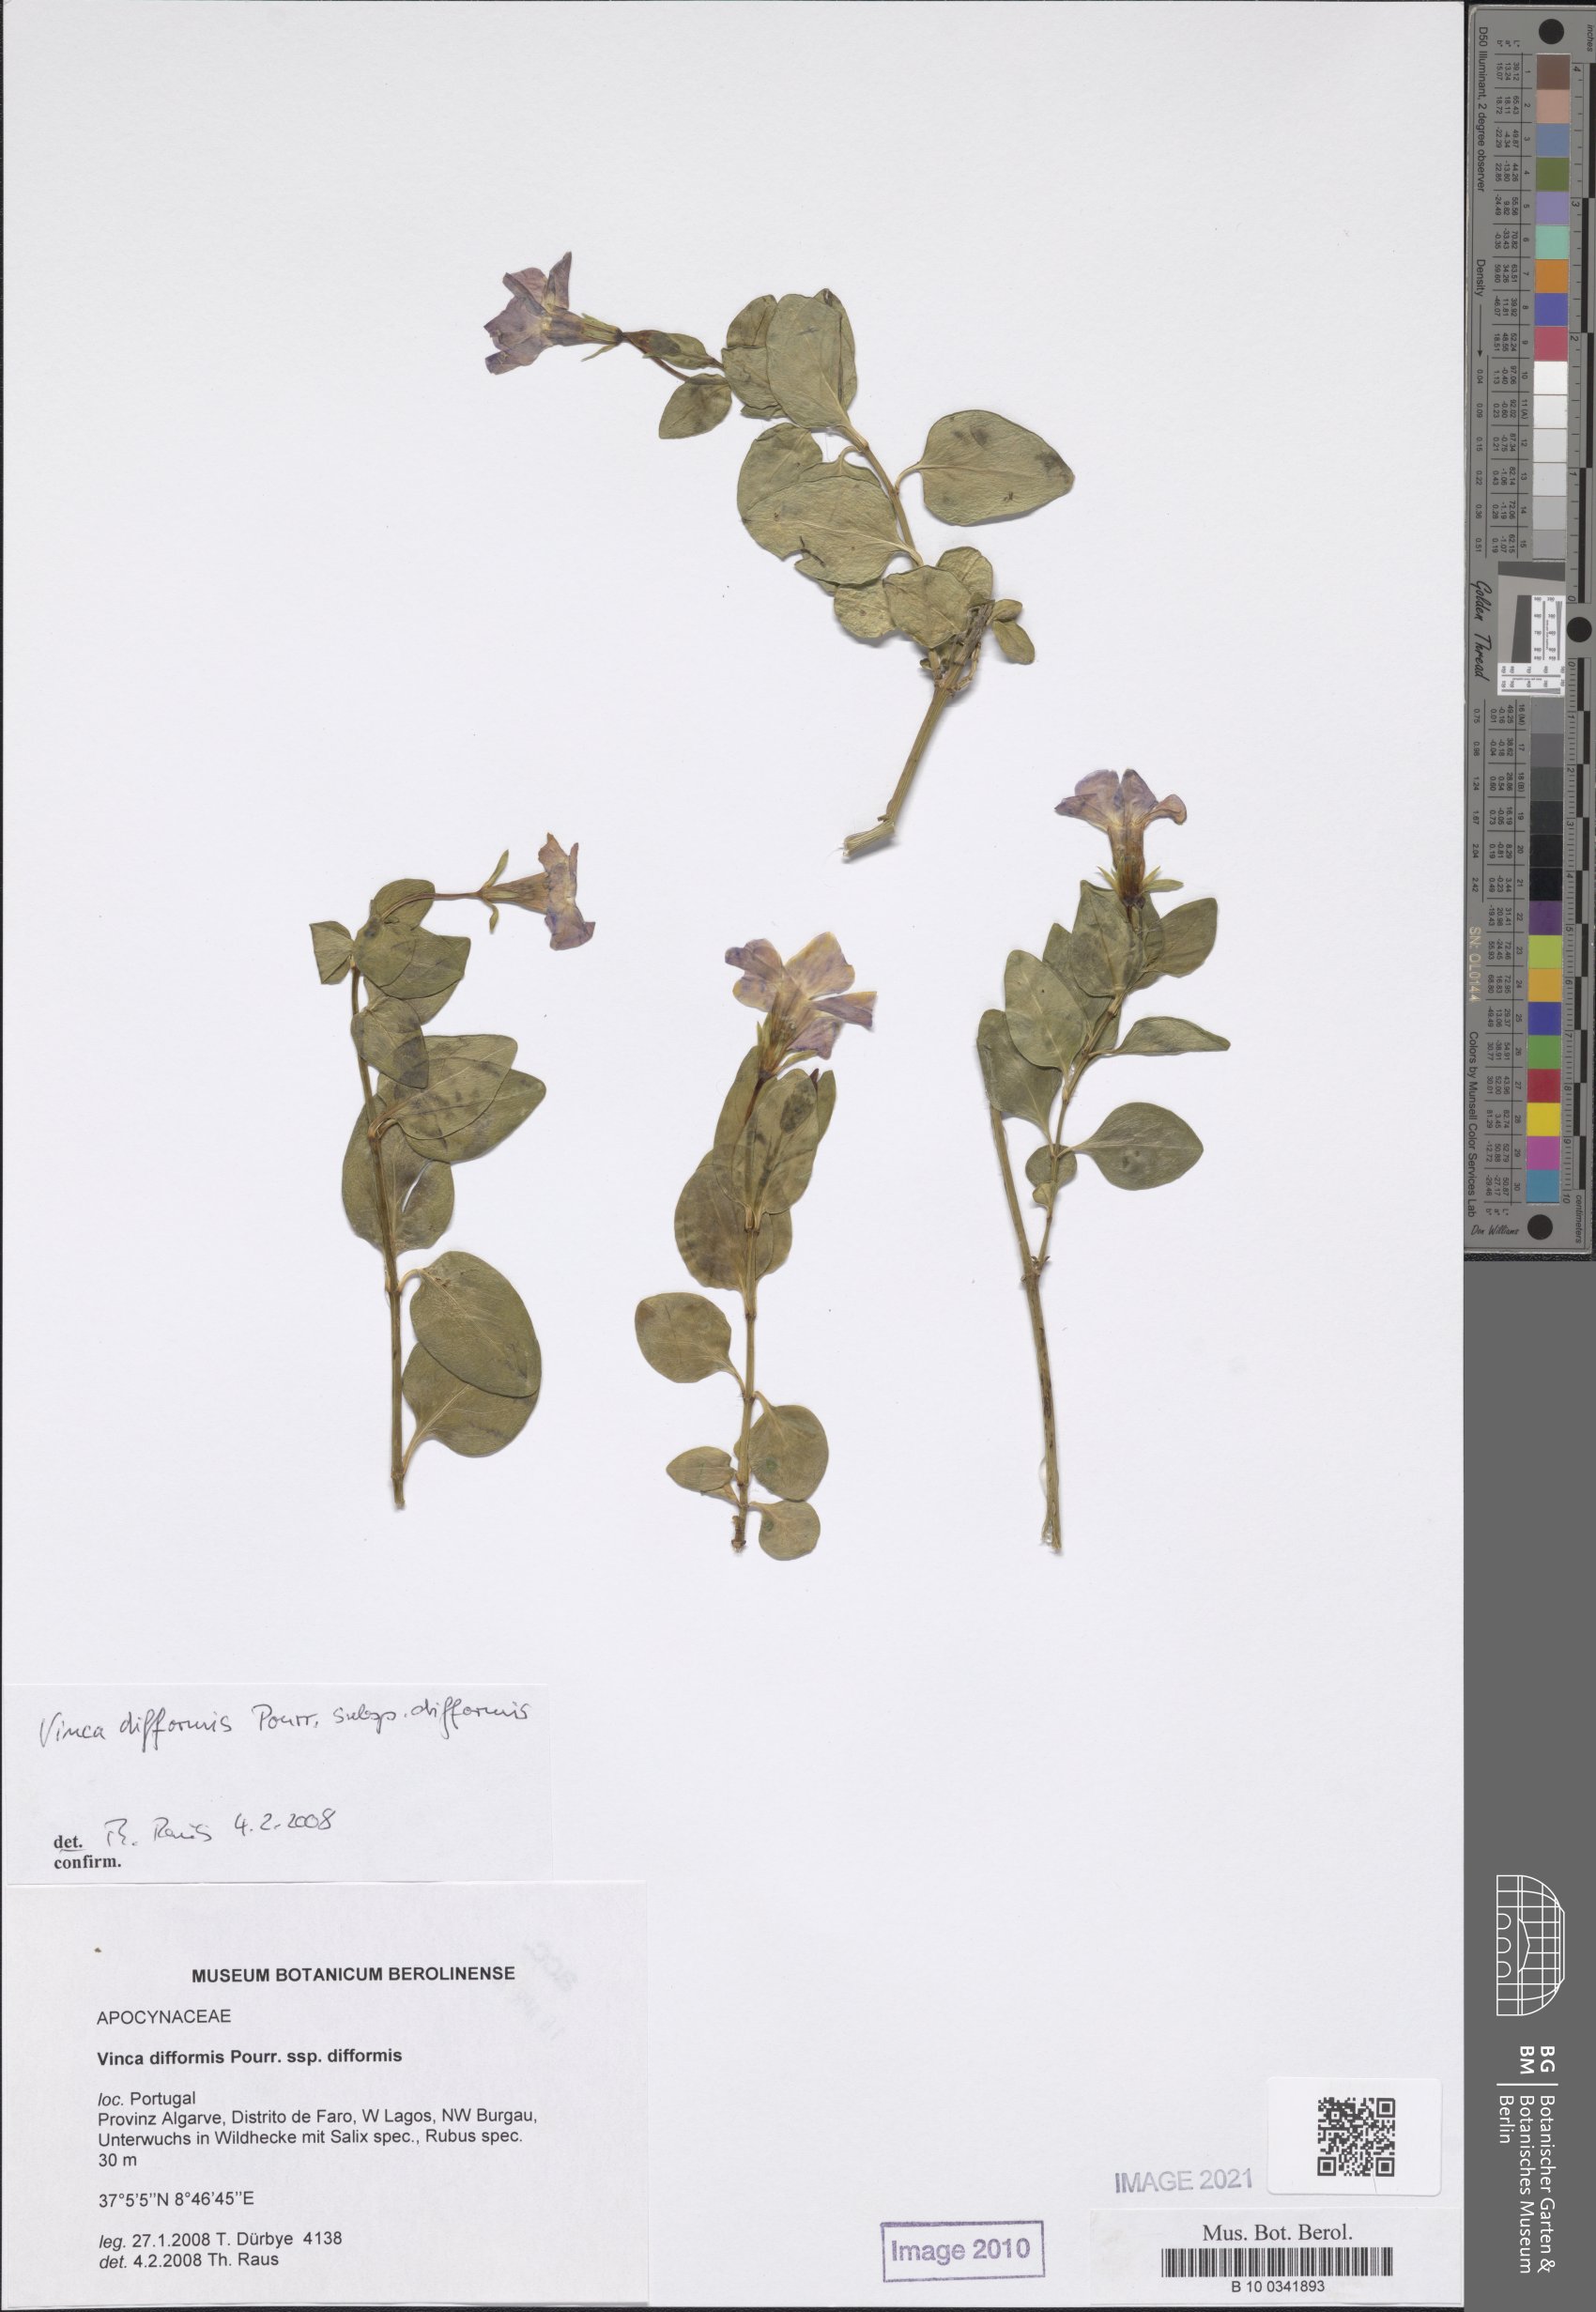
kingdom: Plantae
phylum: Tracheophyta
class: Magnoliopsida
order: Gentianales
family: Apocynaceae
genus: Vinca
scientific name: Vinca difformis
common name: Intermediate periwinkle
